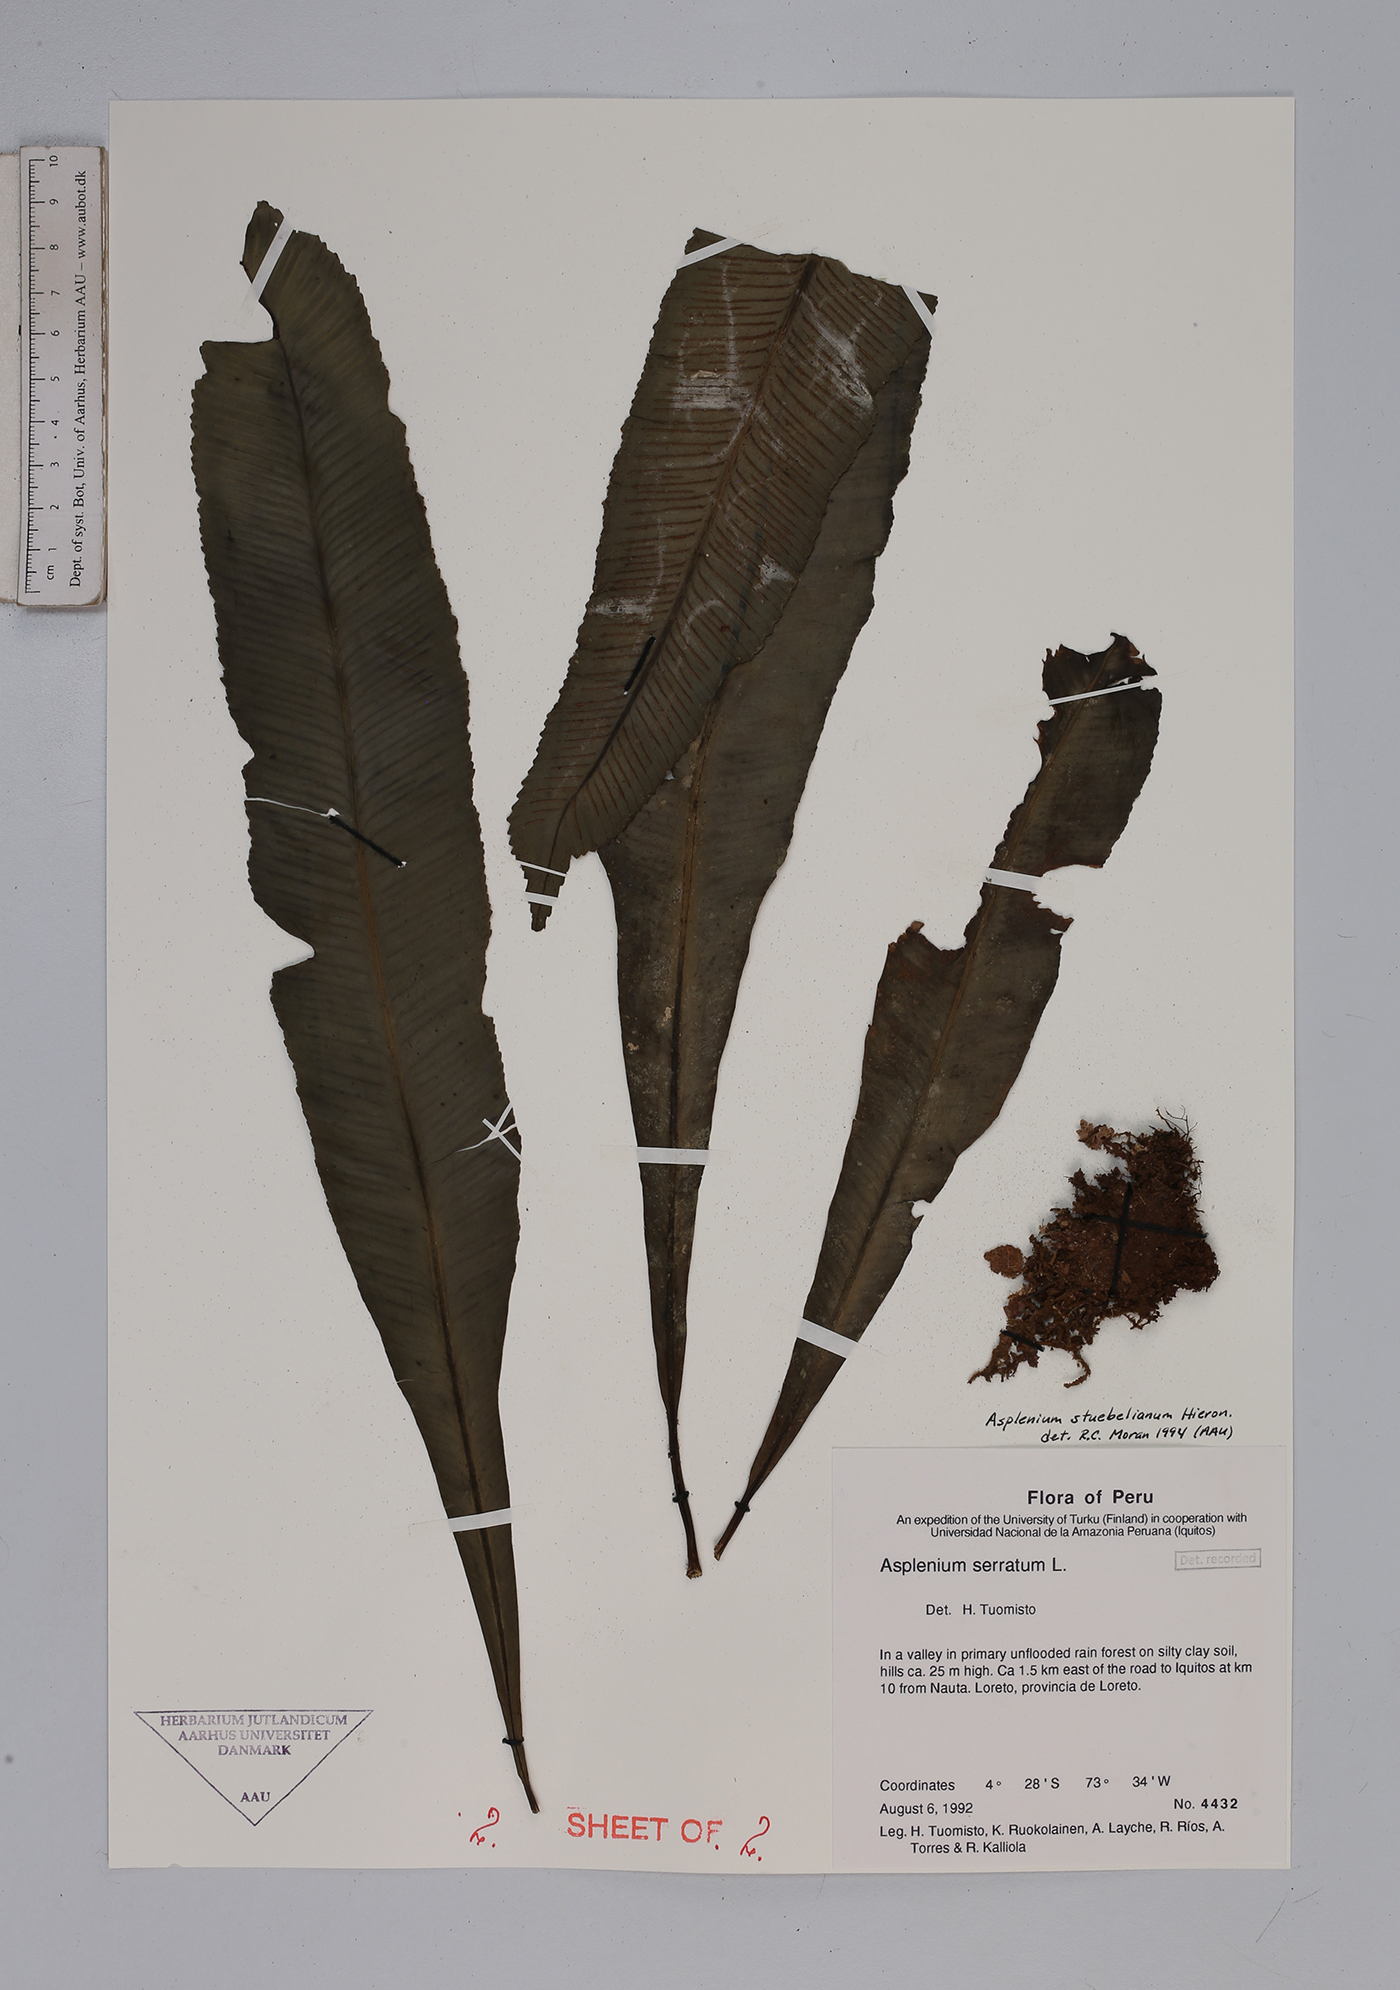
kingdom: Plantae
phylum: Tracheophyta
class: Polypodiopsida
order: Polypodiales
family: Aspleniaceae
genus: Asplenium
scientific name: Asplenium serratum
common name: Wild birdnest fern
